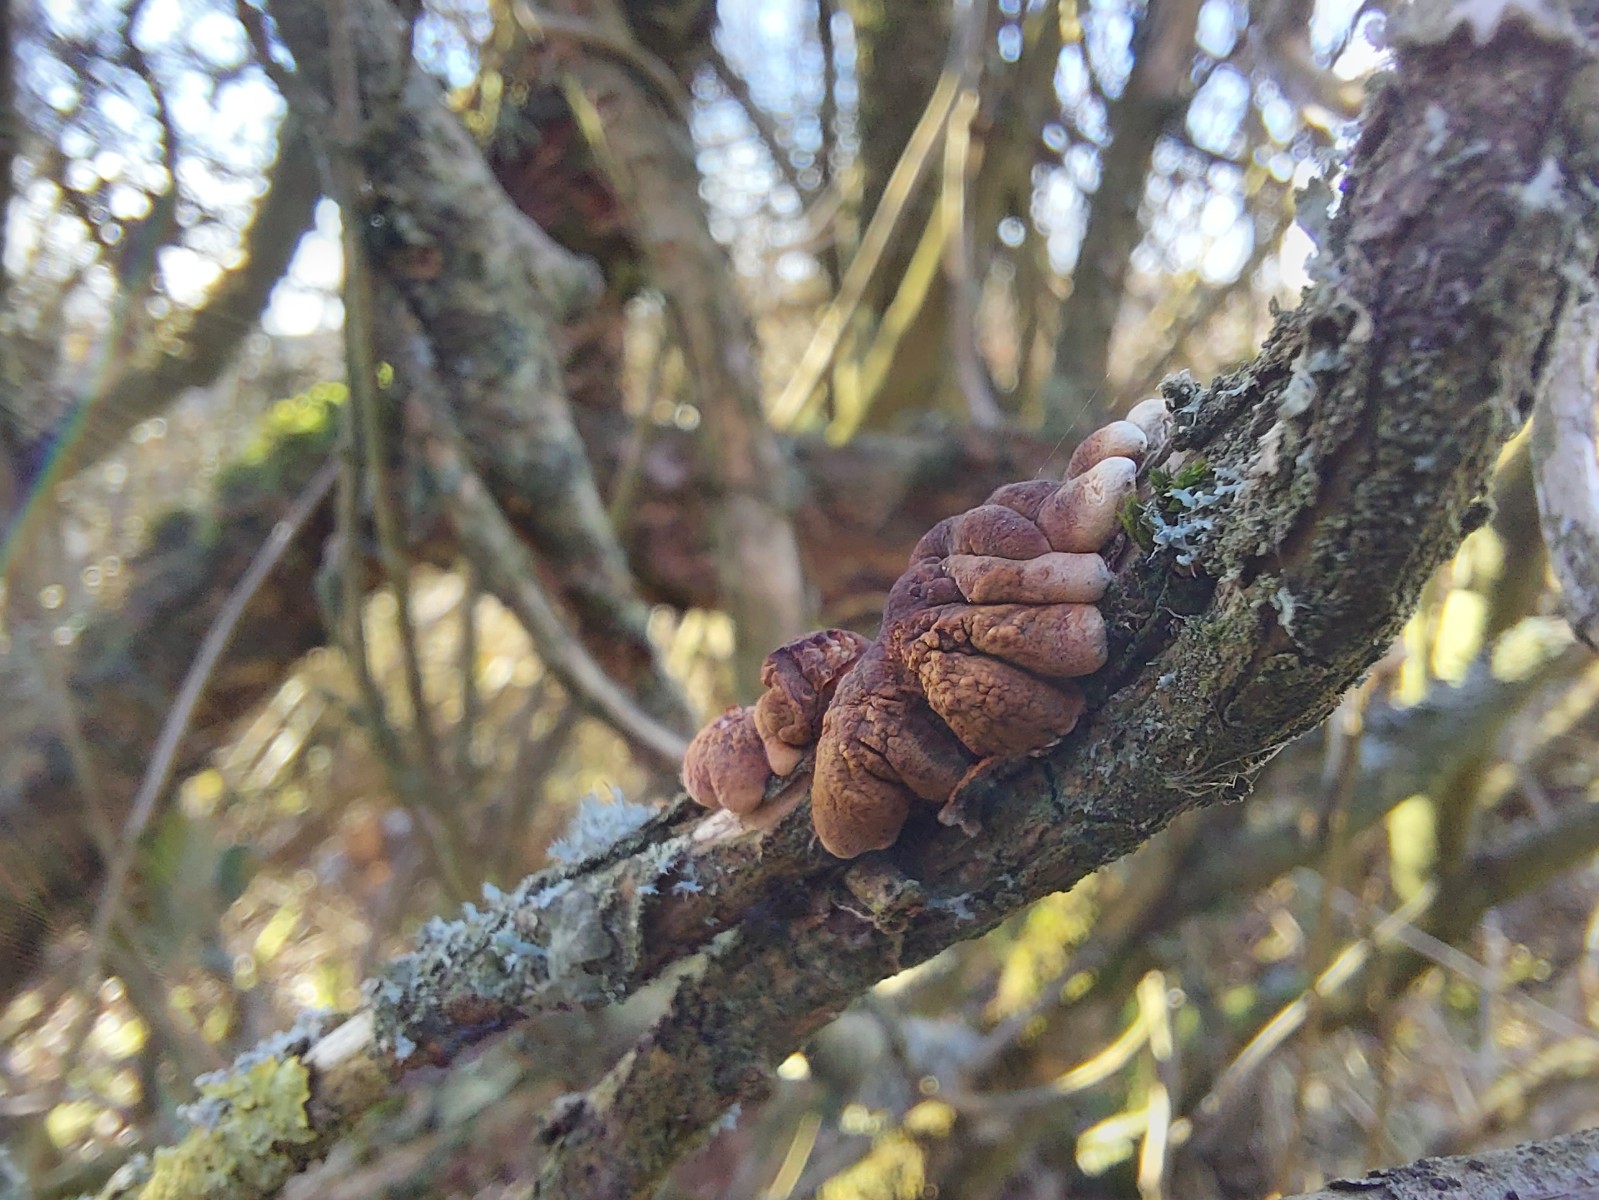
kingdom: Fungi
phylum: Ascomycota
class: Sordariomycetes
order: Hypocreales
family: Hypocreaceae
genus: Hypocreopsis
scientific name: Hypocreopsis lichenoides
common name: pilfinger
